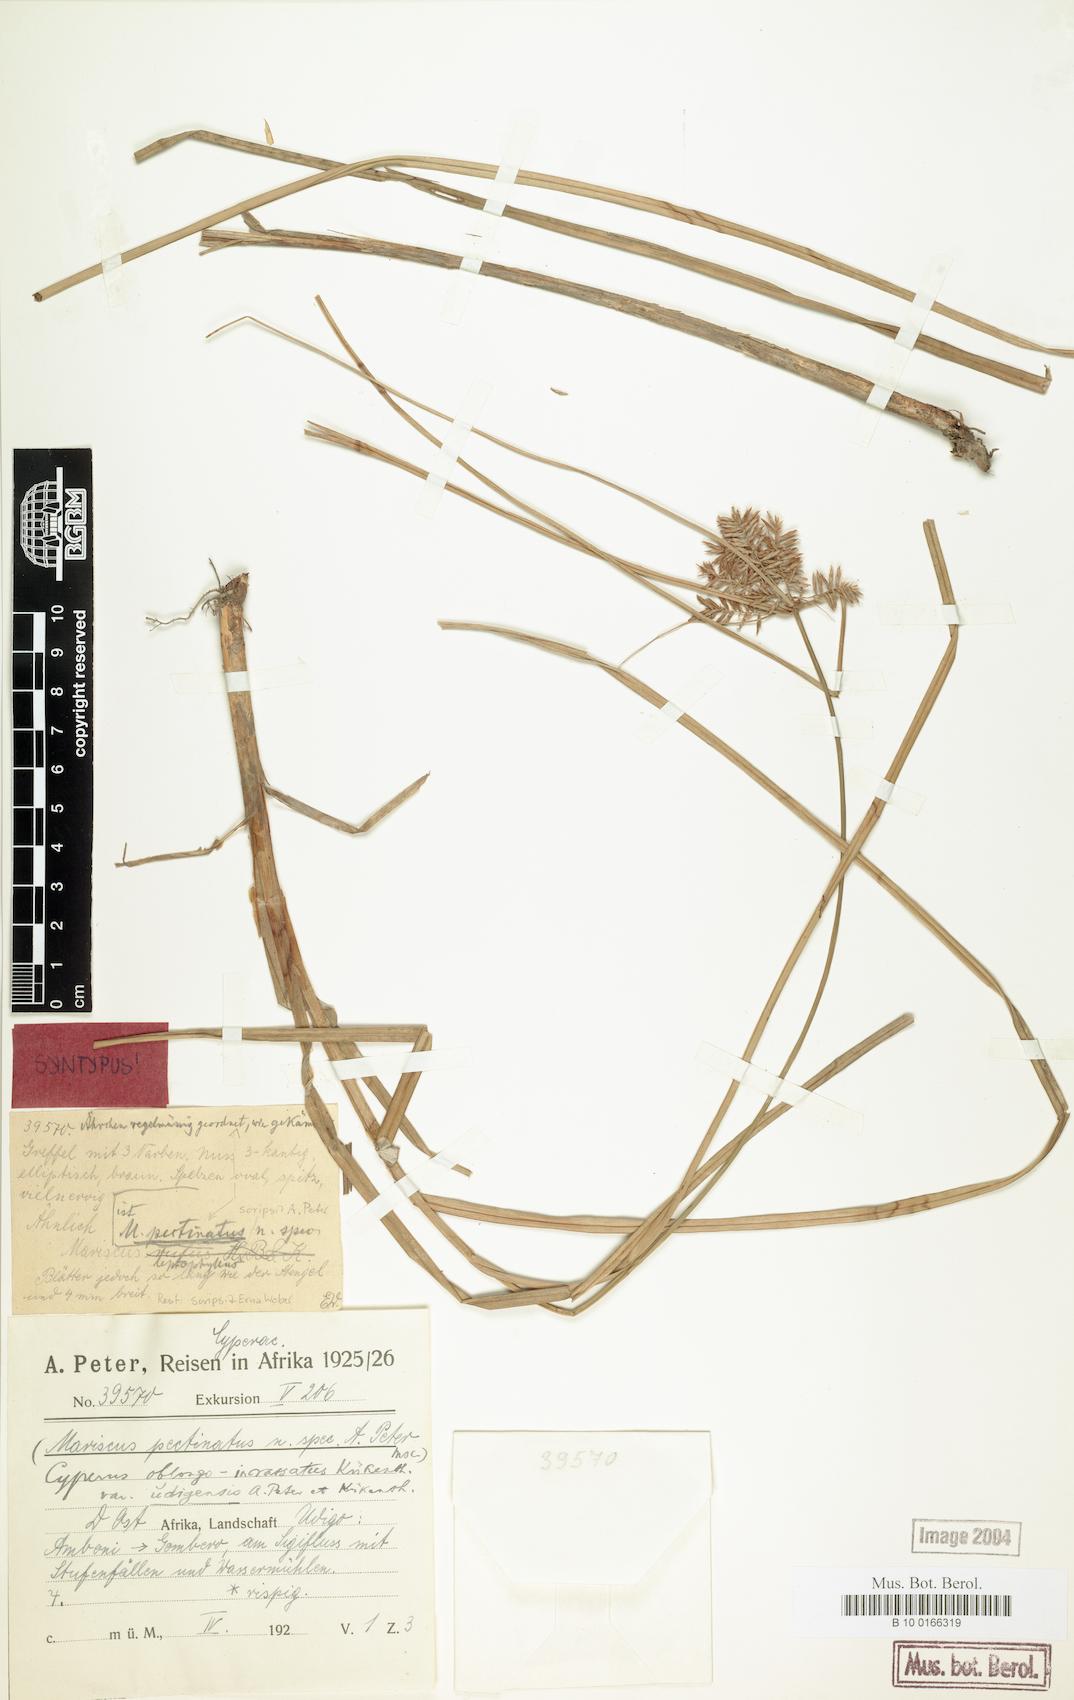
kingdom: Plantae
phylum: Tracheophyta
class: Liliopsida
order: Poales
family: Cyperaceae
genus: Cyperus
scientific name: Cyperus oblongoincrassatus
